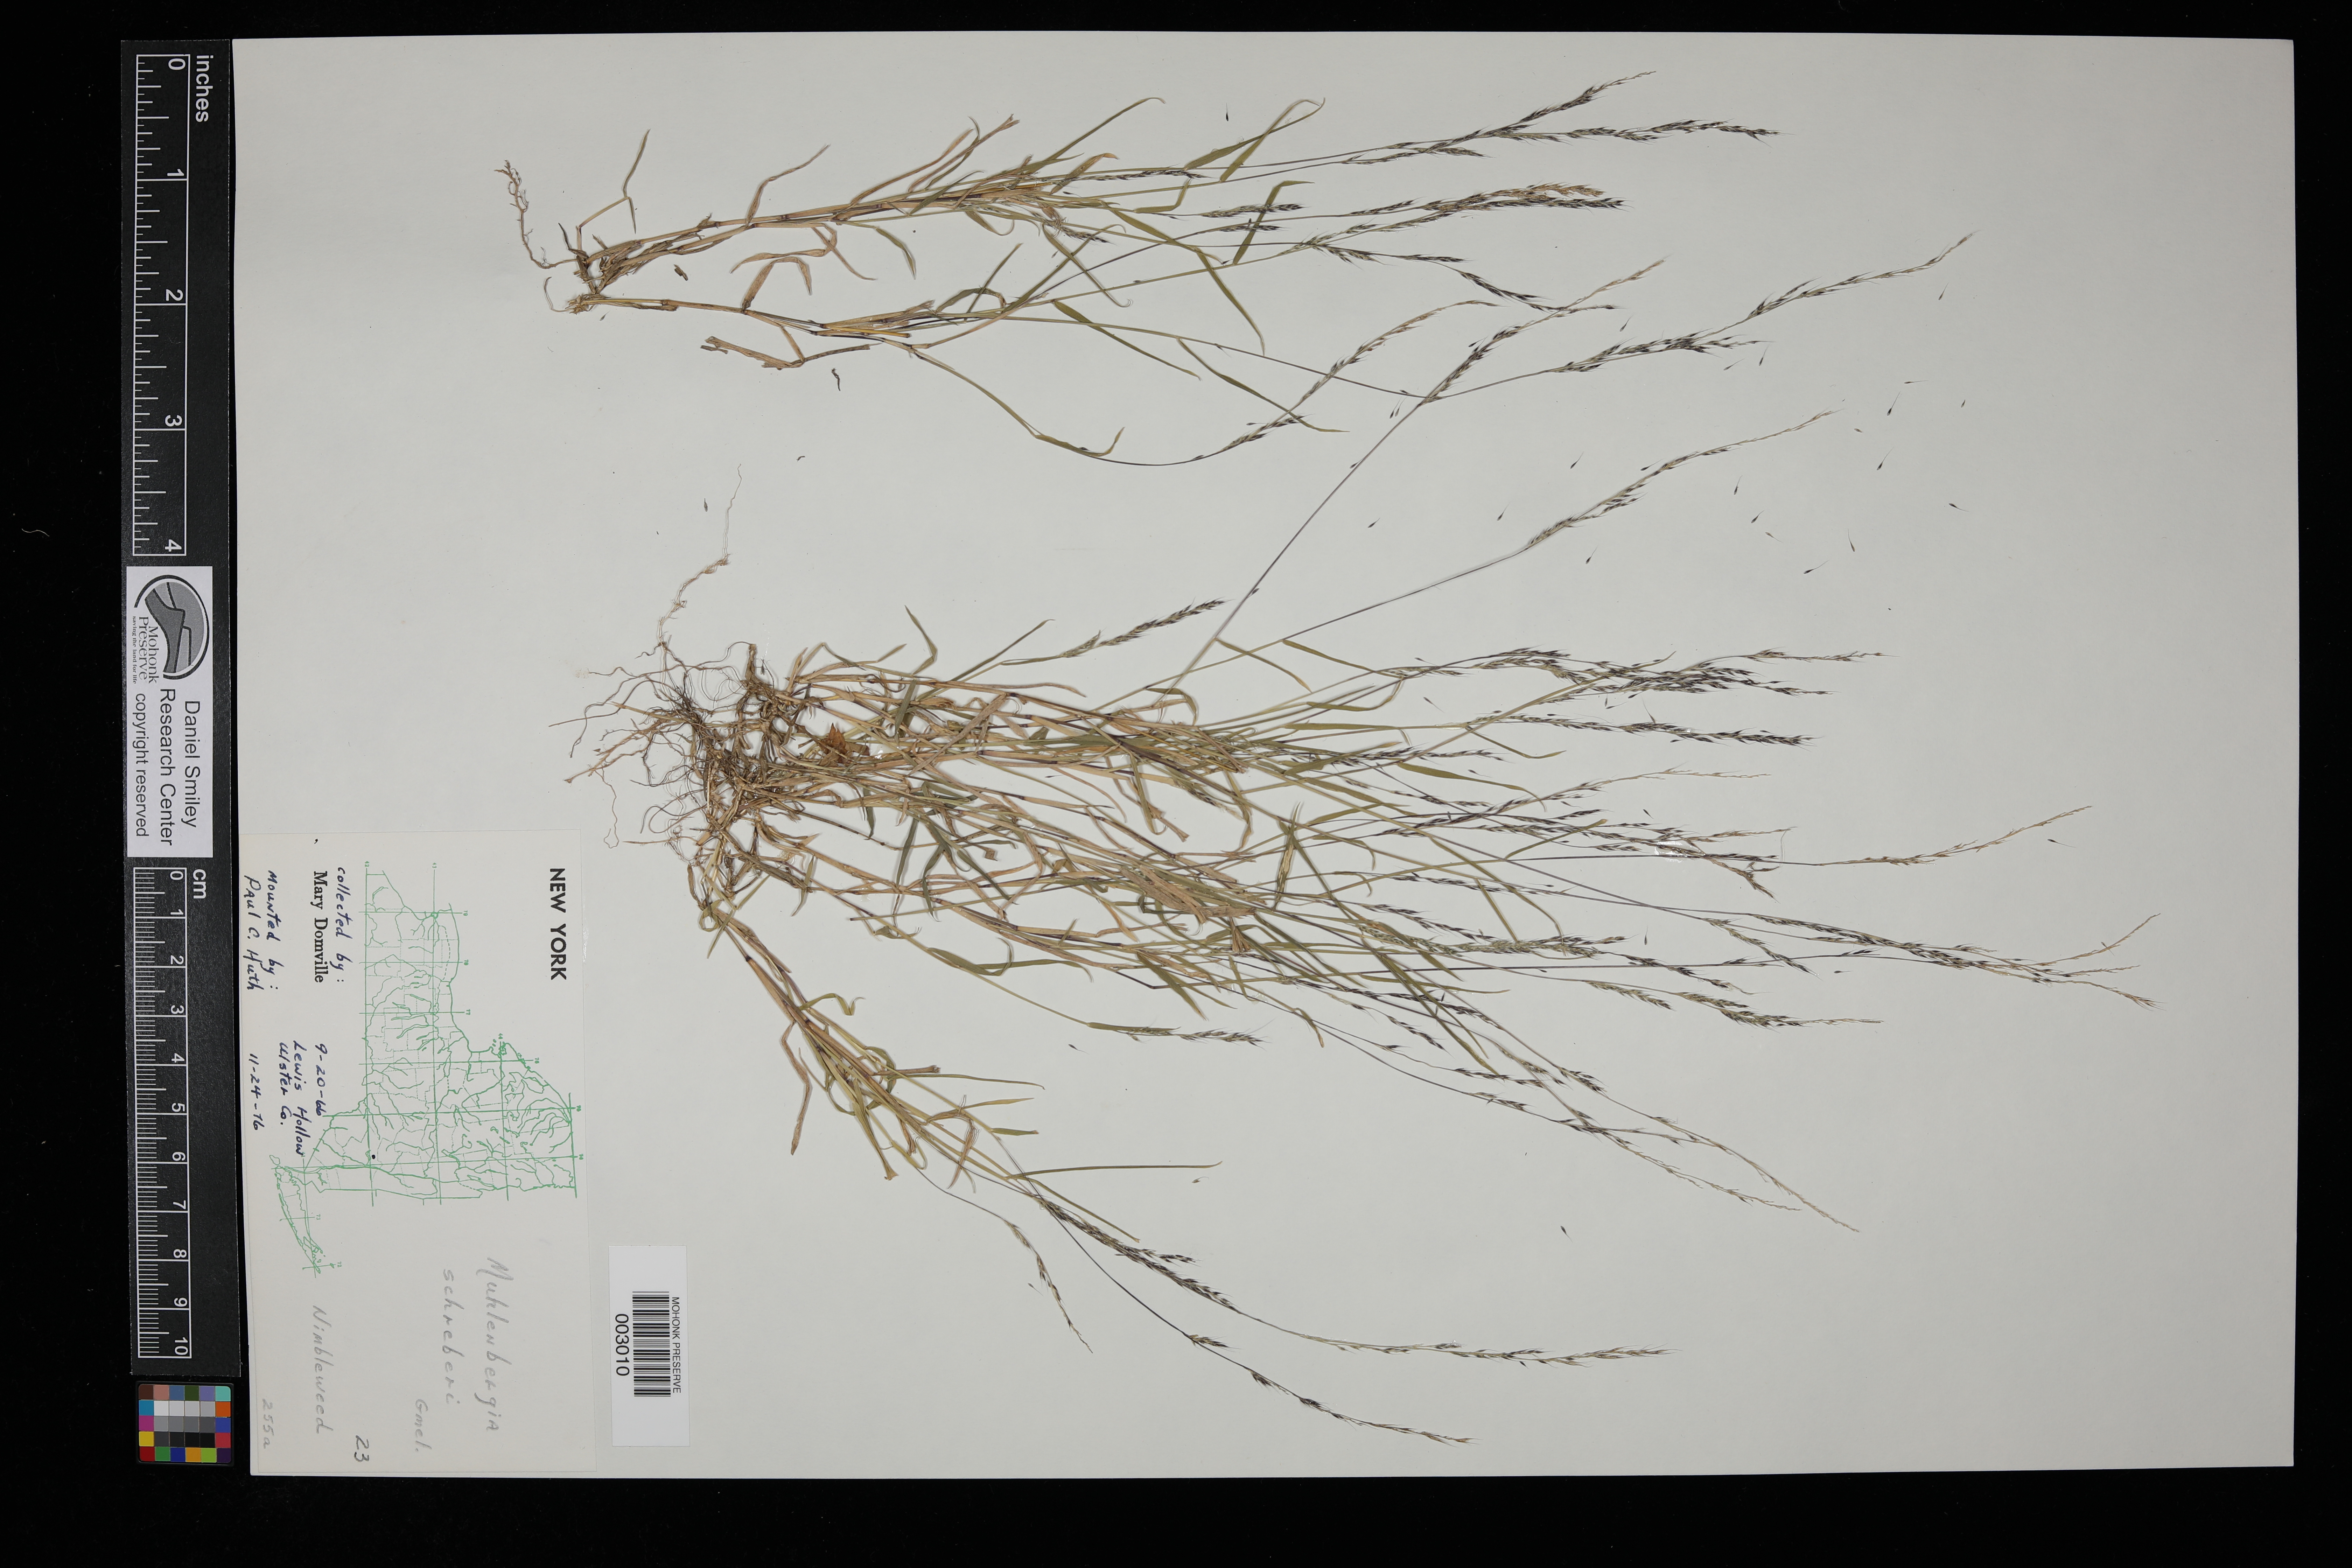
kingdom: Plantae
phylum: Tracheophyta
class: Liliopsida
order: Poales
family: Poaceae
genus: Muhlenbergia
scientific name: Muhlenbergia schreberi
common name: Nimblewill
